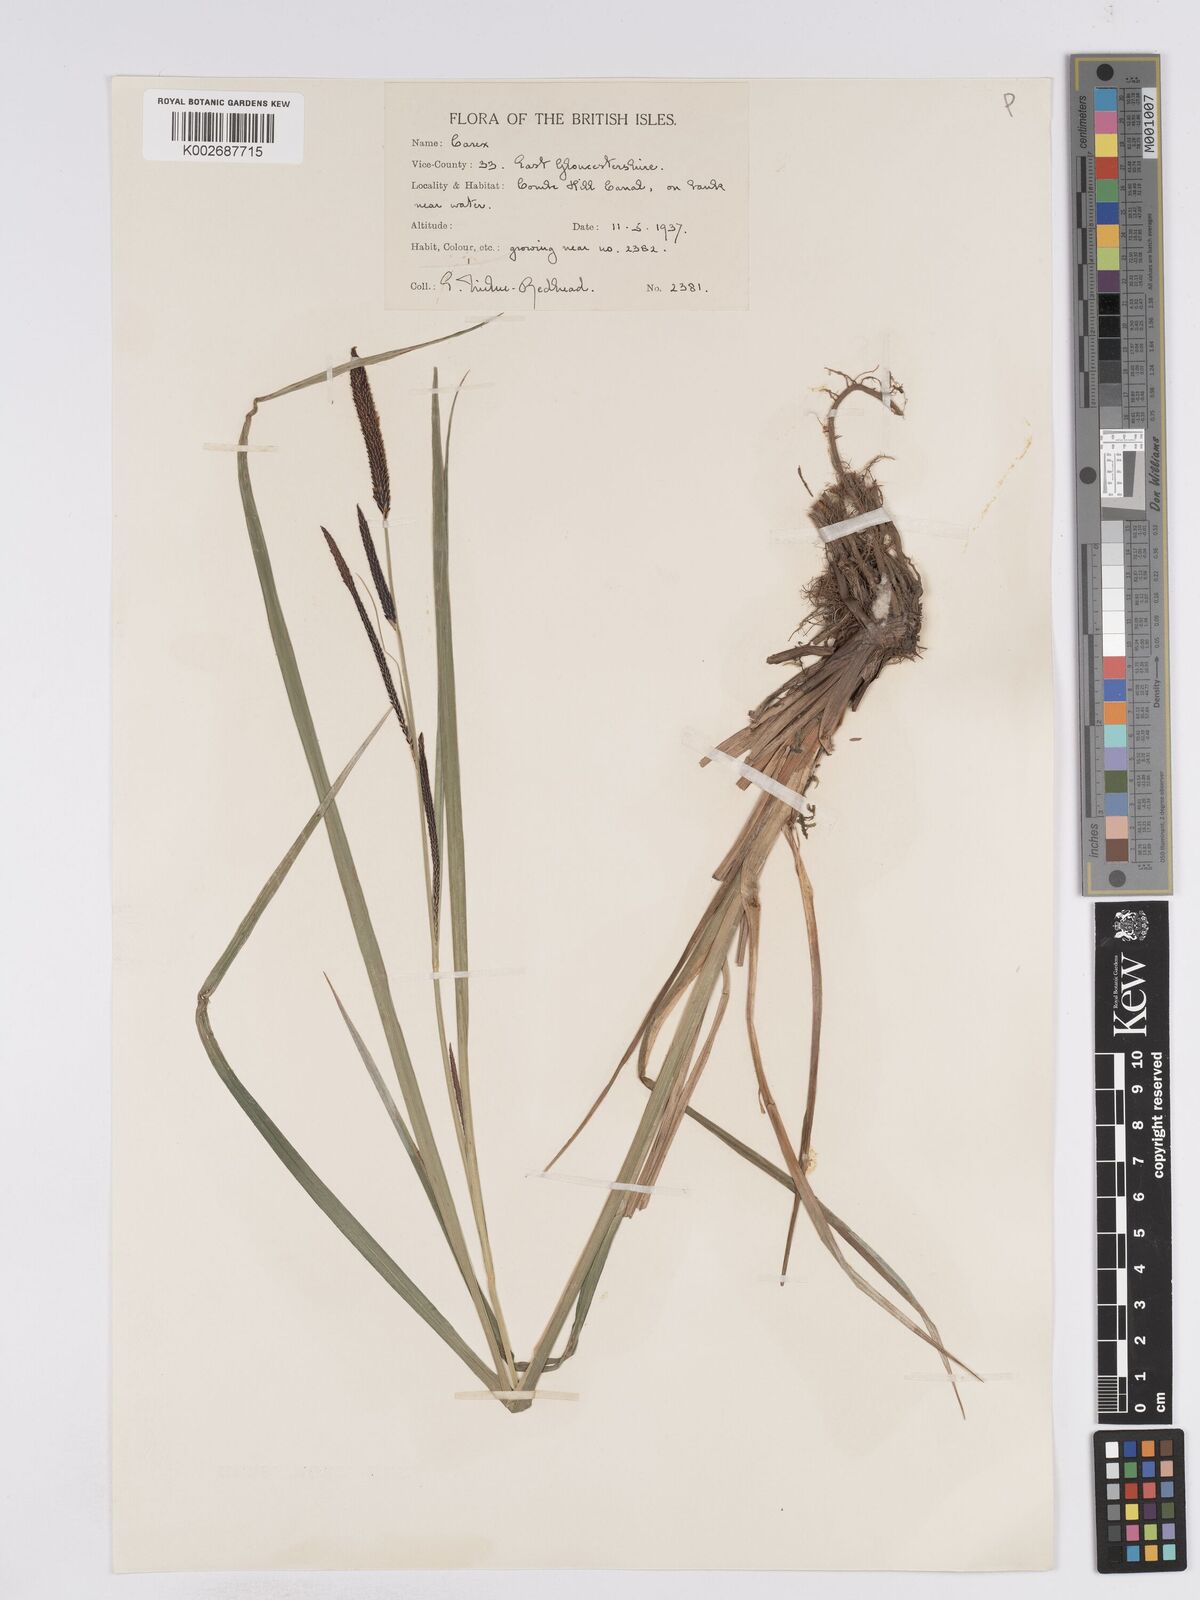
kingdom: Plantae
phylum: Tracheophyta
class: Liliopsida
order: Poales
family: Cyperaceae
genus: Carex
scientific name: Carex acuta
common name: Slender tufted-sedge
